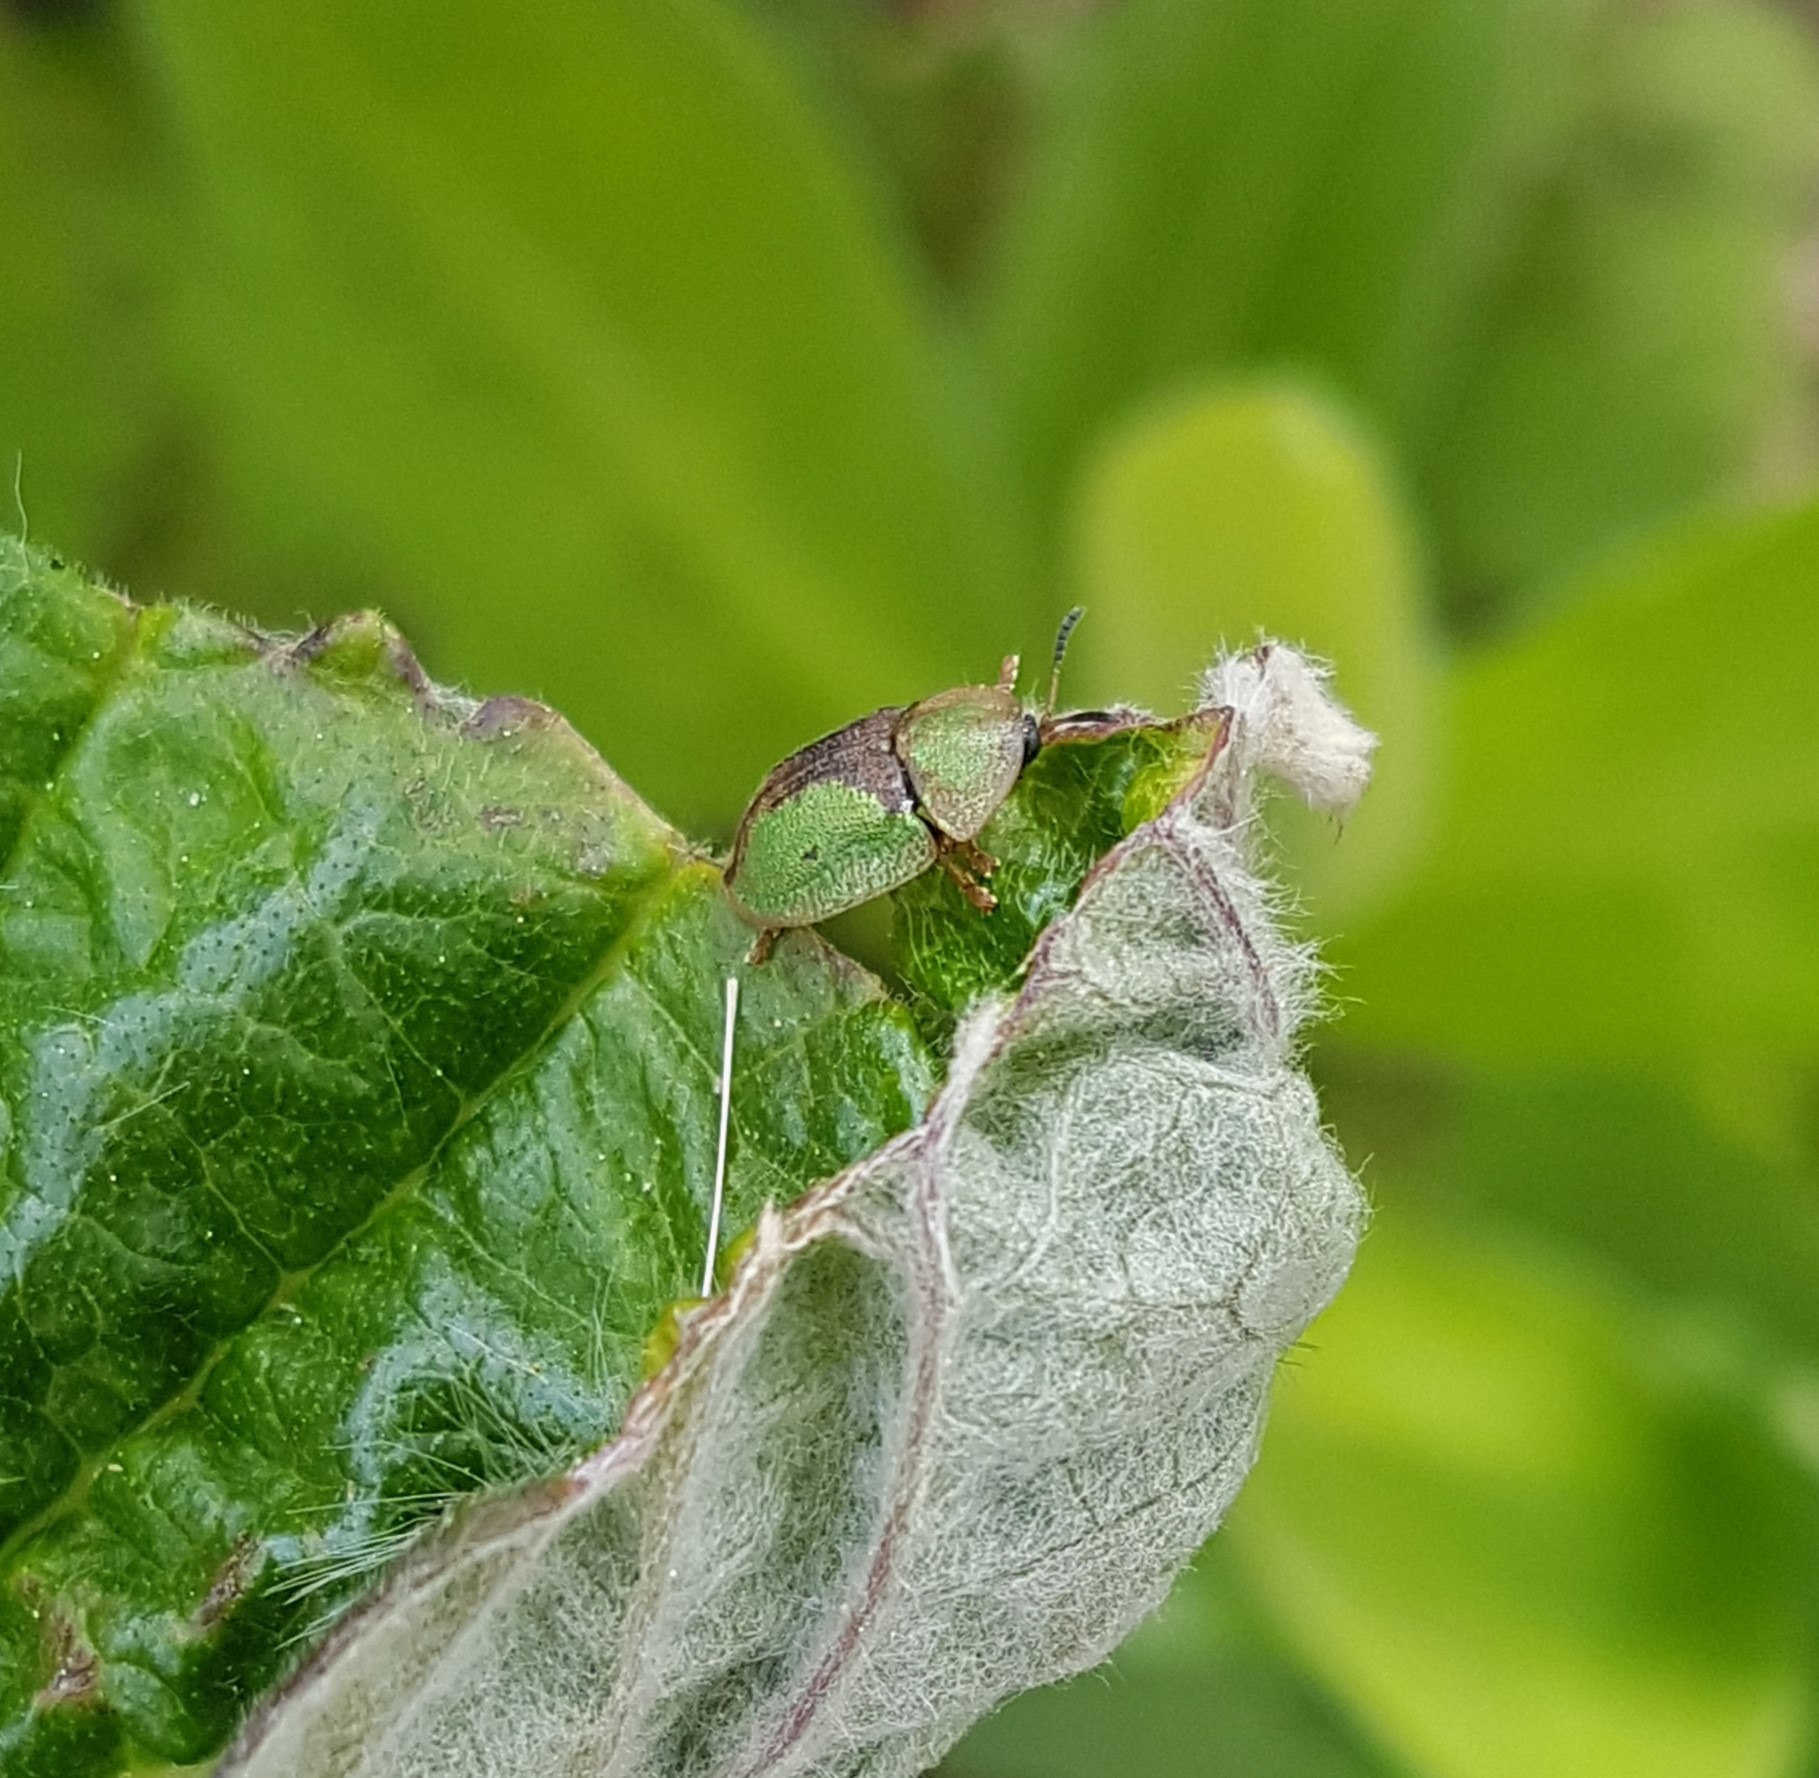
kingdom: Animalia
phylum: Arthropoda
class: Insecta
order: Coleoptera
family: Chrysomelidae
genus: Cassida
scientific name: Cassida vibex
